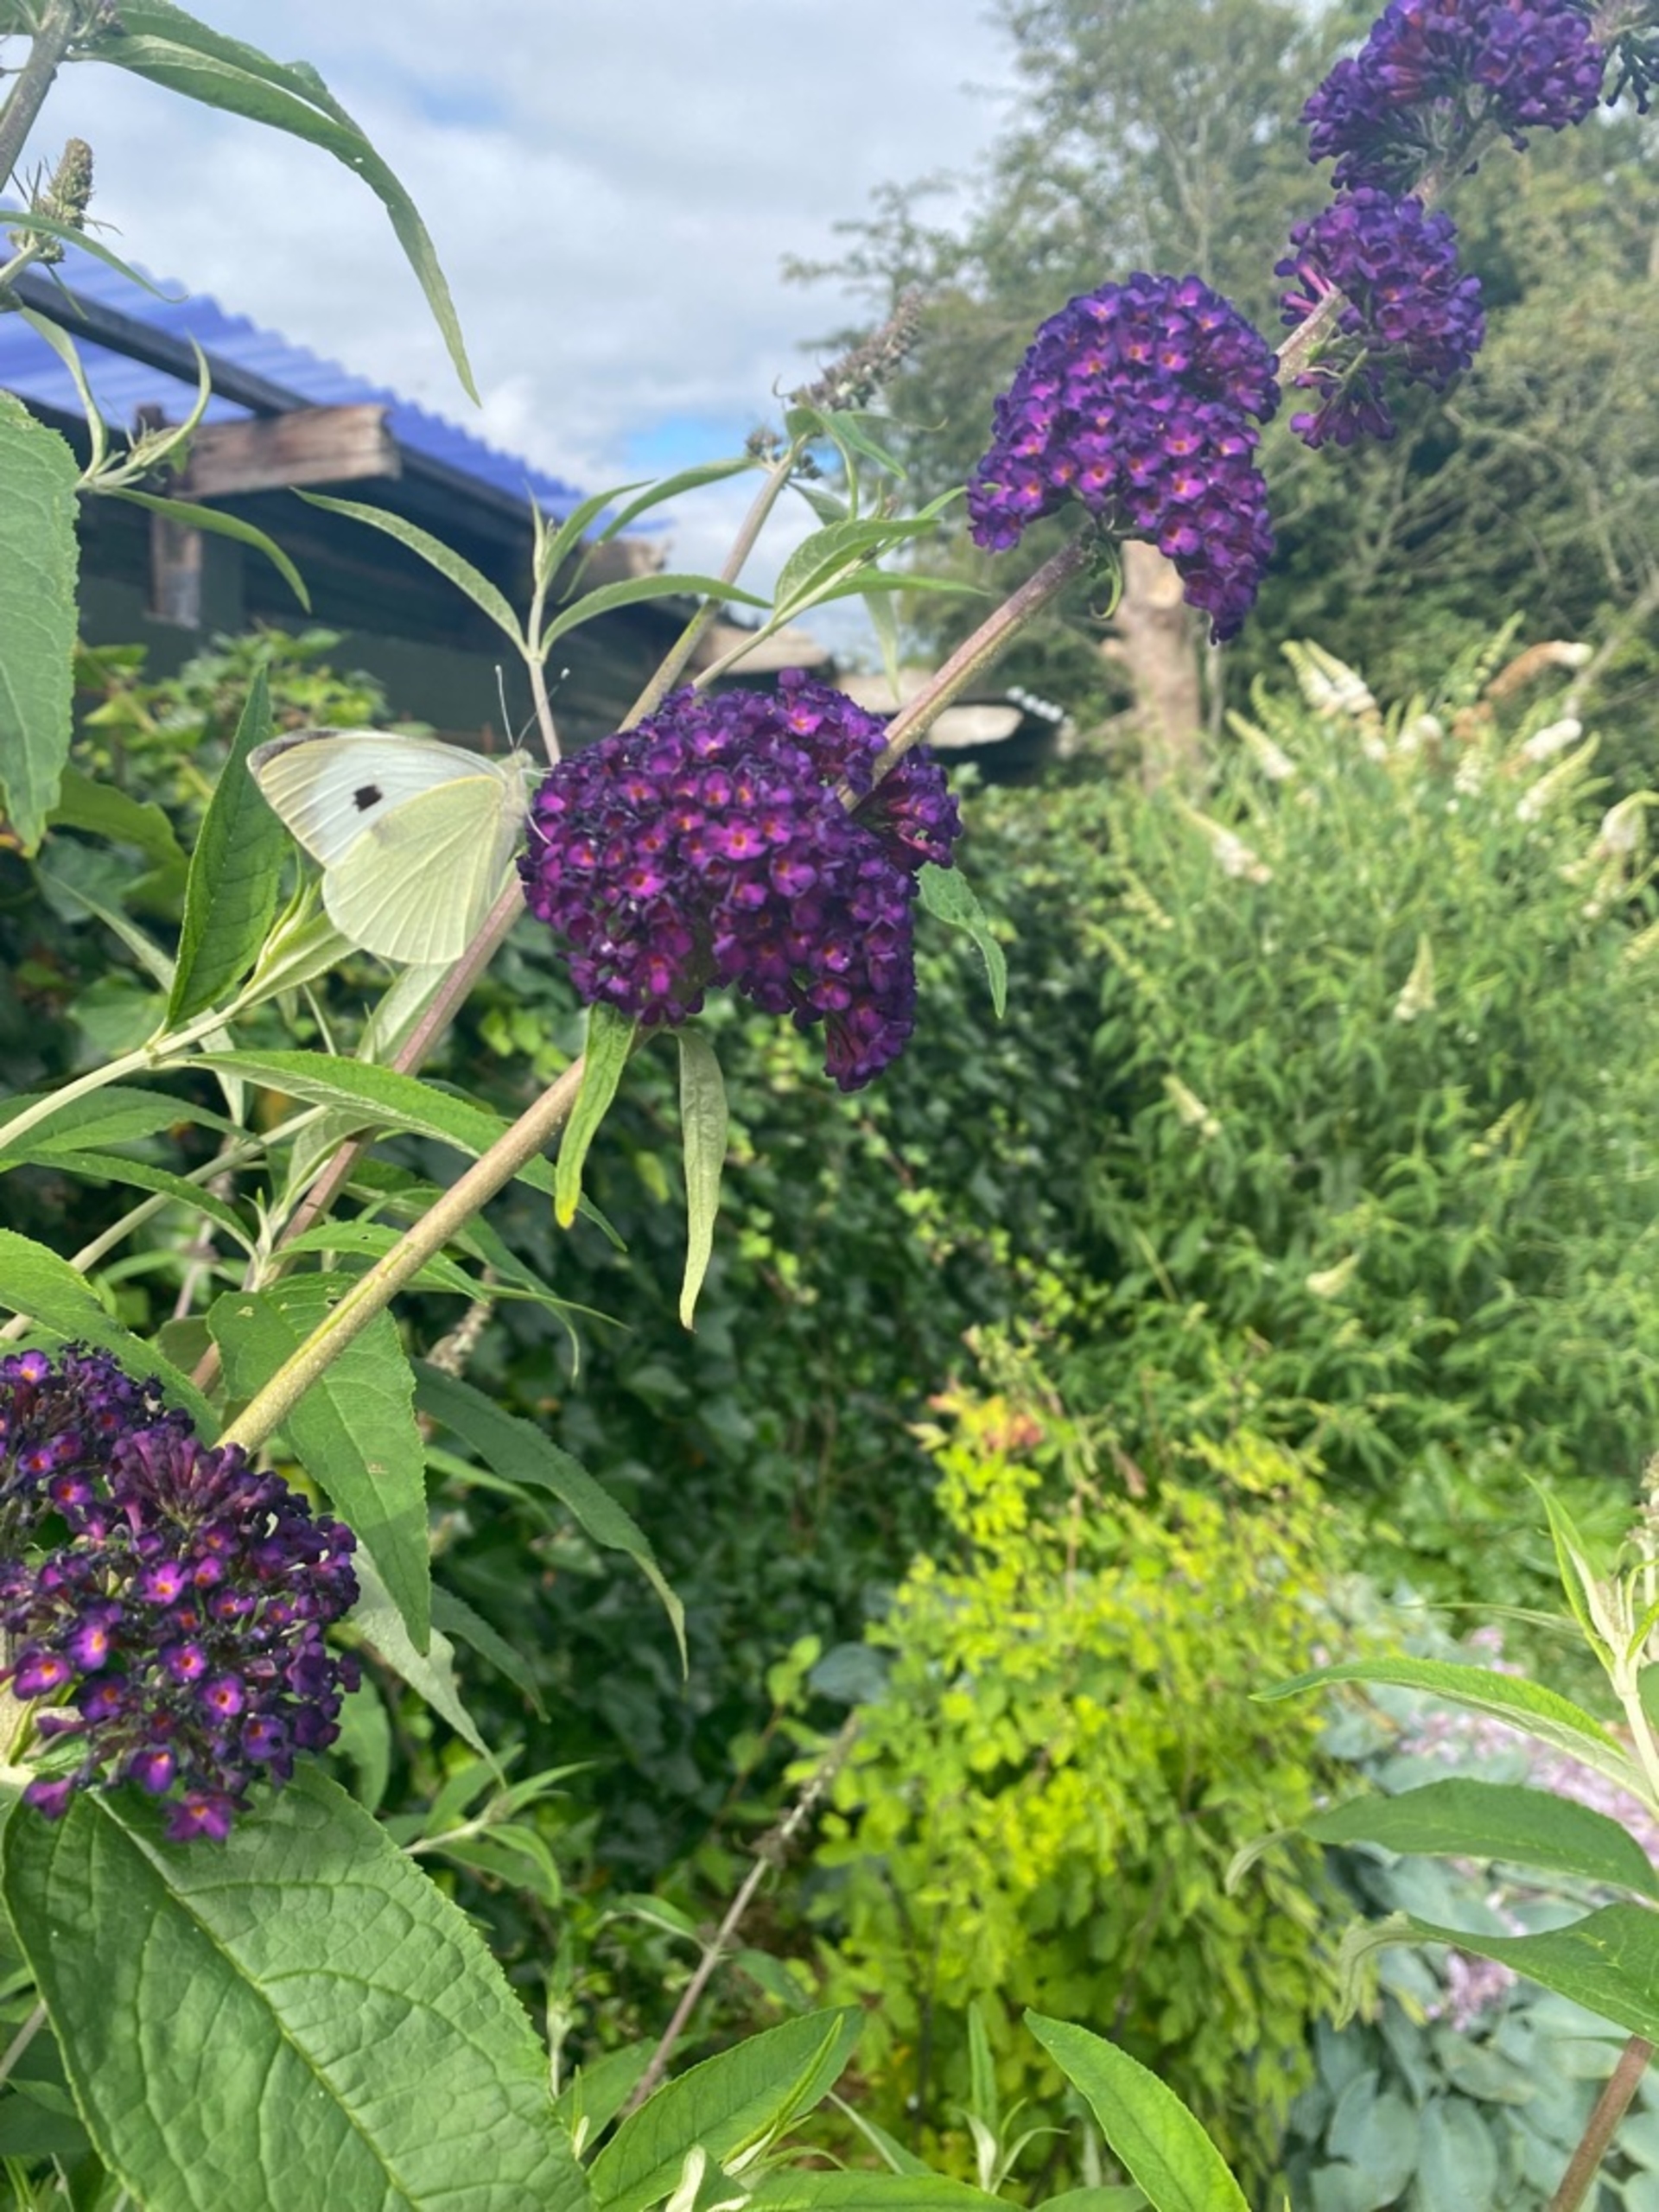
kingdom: Animalia
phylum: Arthropoda
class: Insecta
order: Lepidoptera
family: Pieridae
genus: Pieris
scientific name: Pieris brassicae
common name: Stor kålsommerfugl
